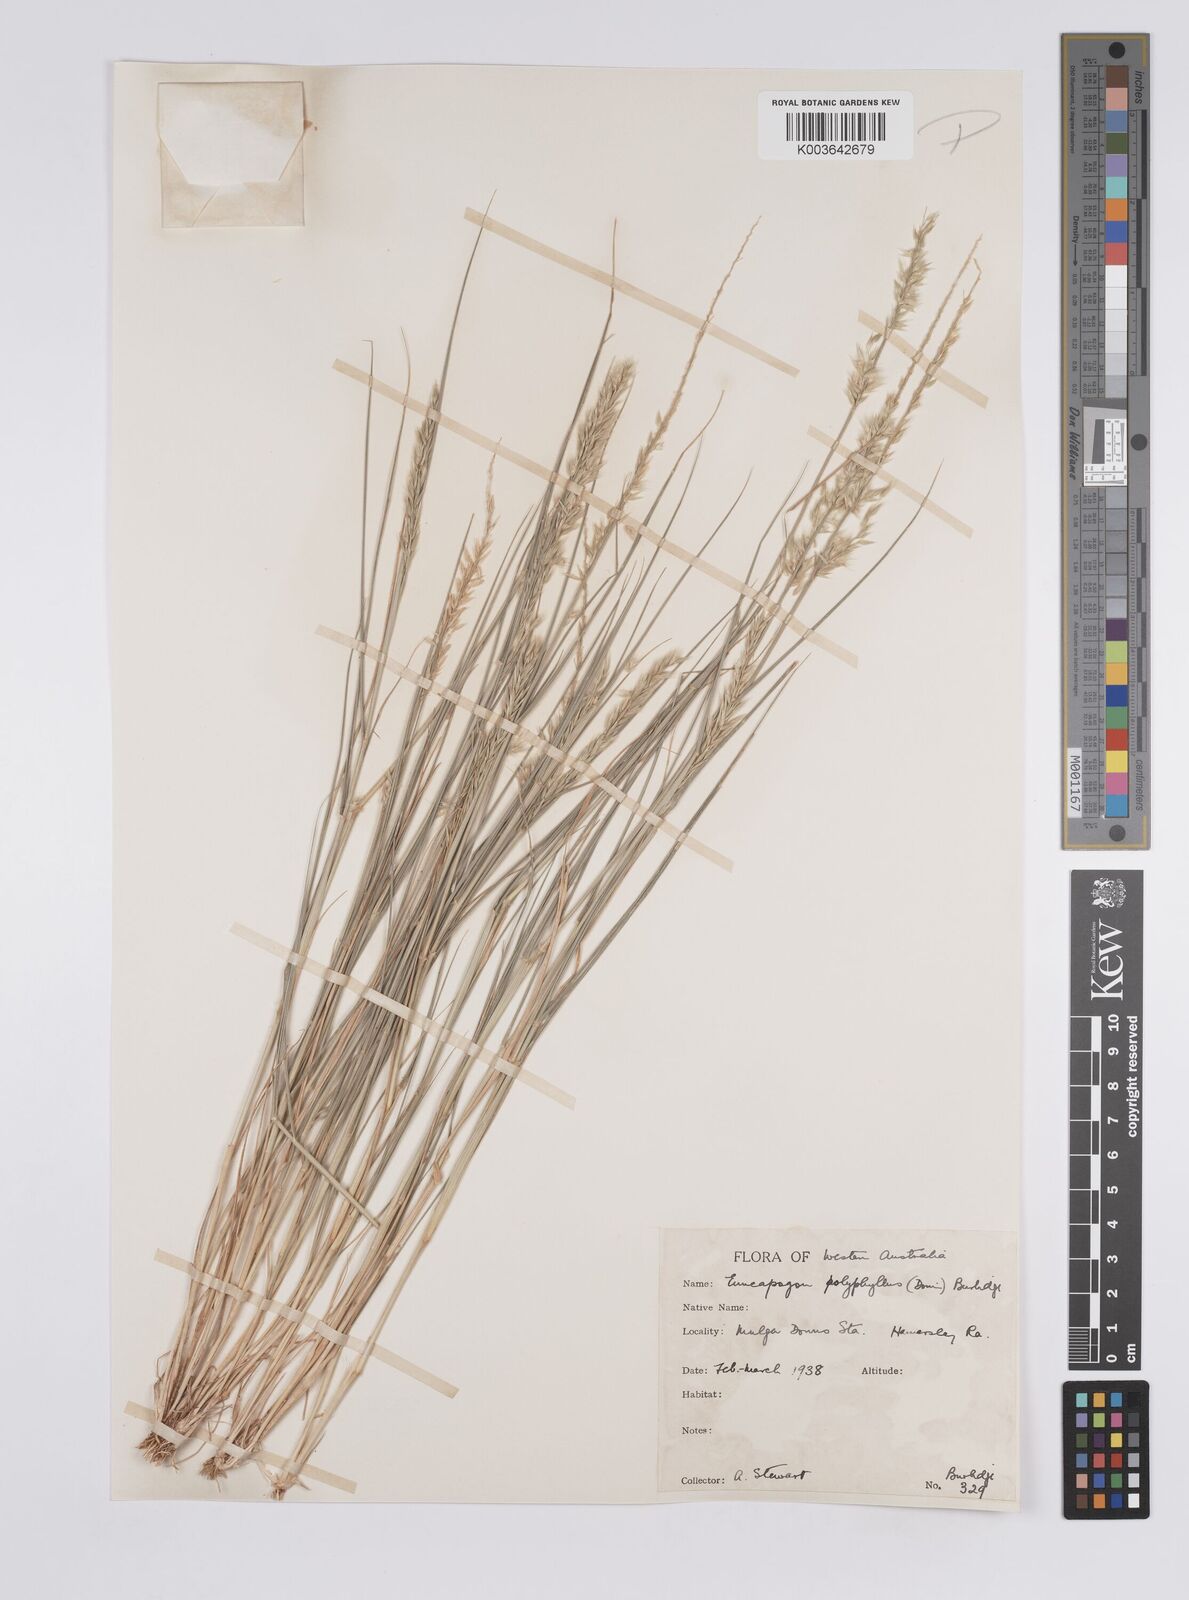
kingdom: Plantae
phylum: Tracheophyta
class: Liliopsida
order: Poales
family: Poaceae
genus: Enneapogon
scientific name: Enneapogon polyphyllus
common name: Leafy nineawn
